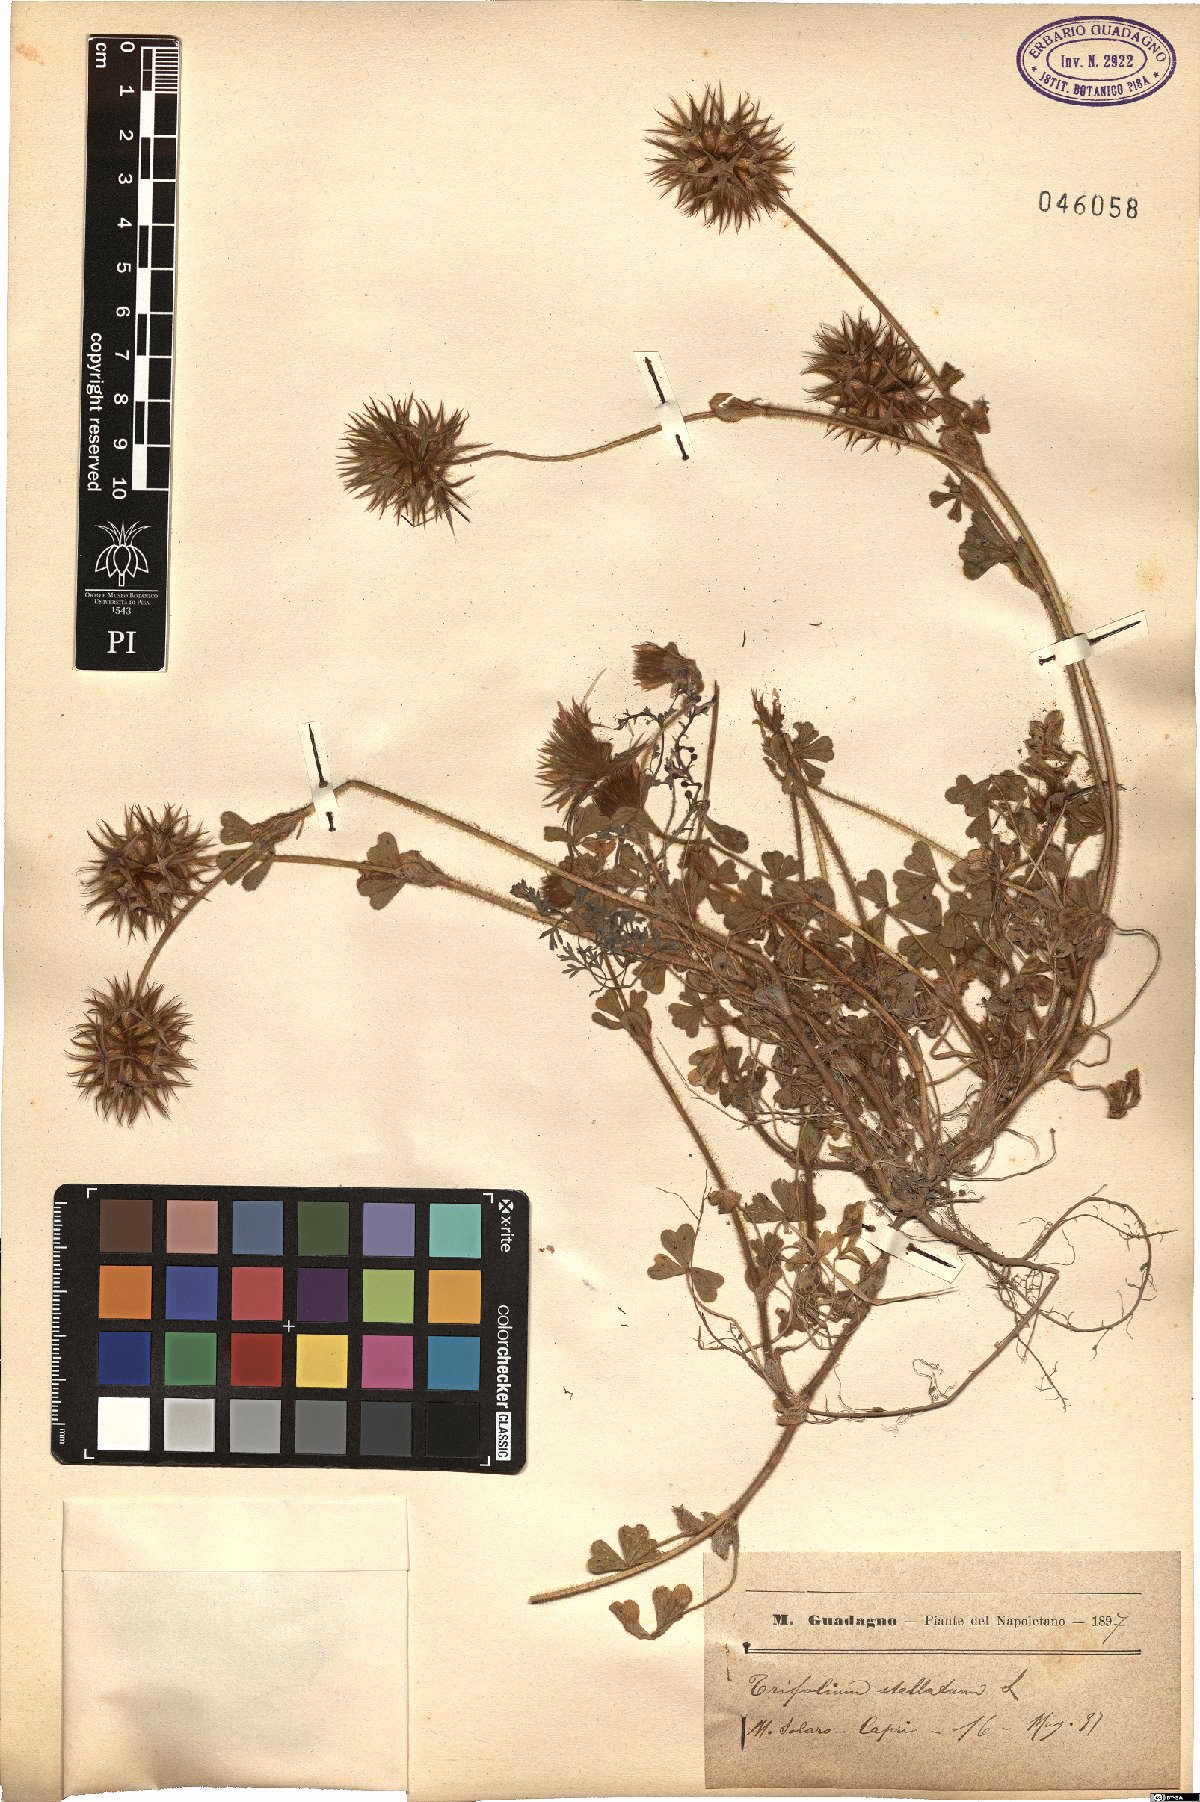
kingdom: Plantae
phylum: Tracheophyta
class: Magnoliopsida
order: Fabales
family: Fabaceae
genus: Trifolium
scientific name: Trifolium stellatum
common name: Starry clover
